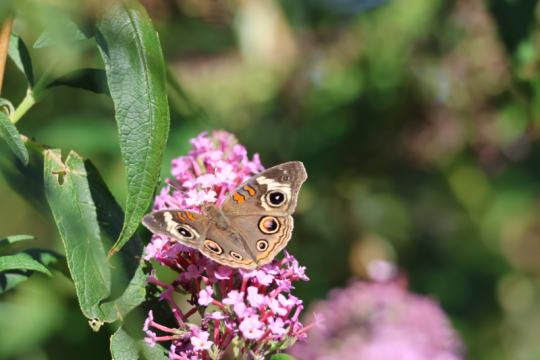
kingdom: Animalia
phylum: Arthropoda
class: Insecta
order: Lepidoptera
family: Nymphalidae
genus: Junonia
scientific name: Junonia coenia
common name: Common Buckeye
